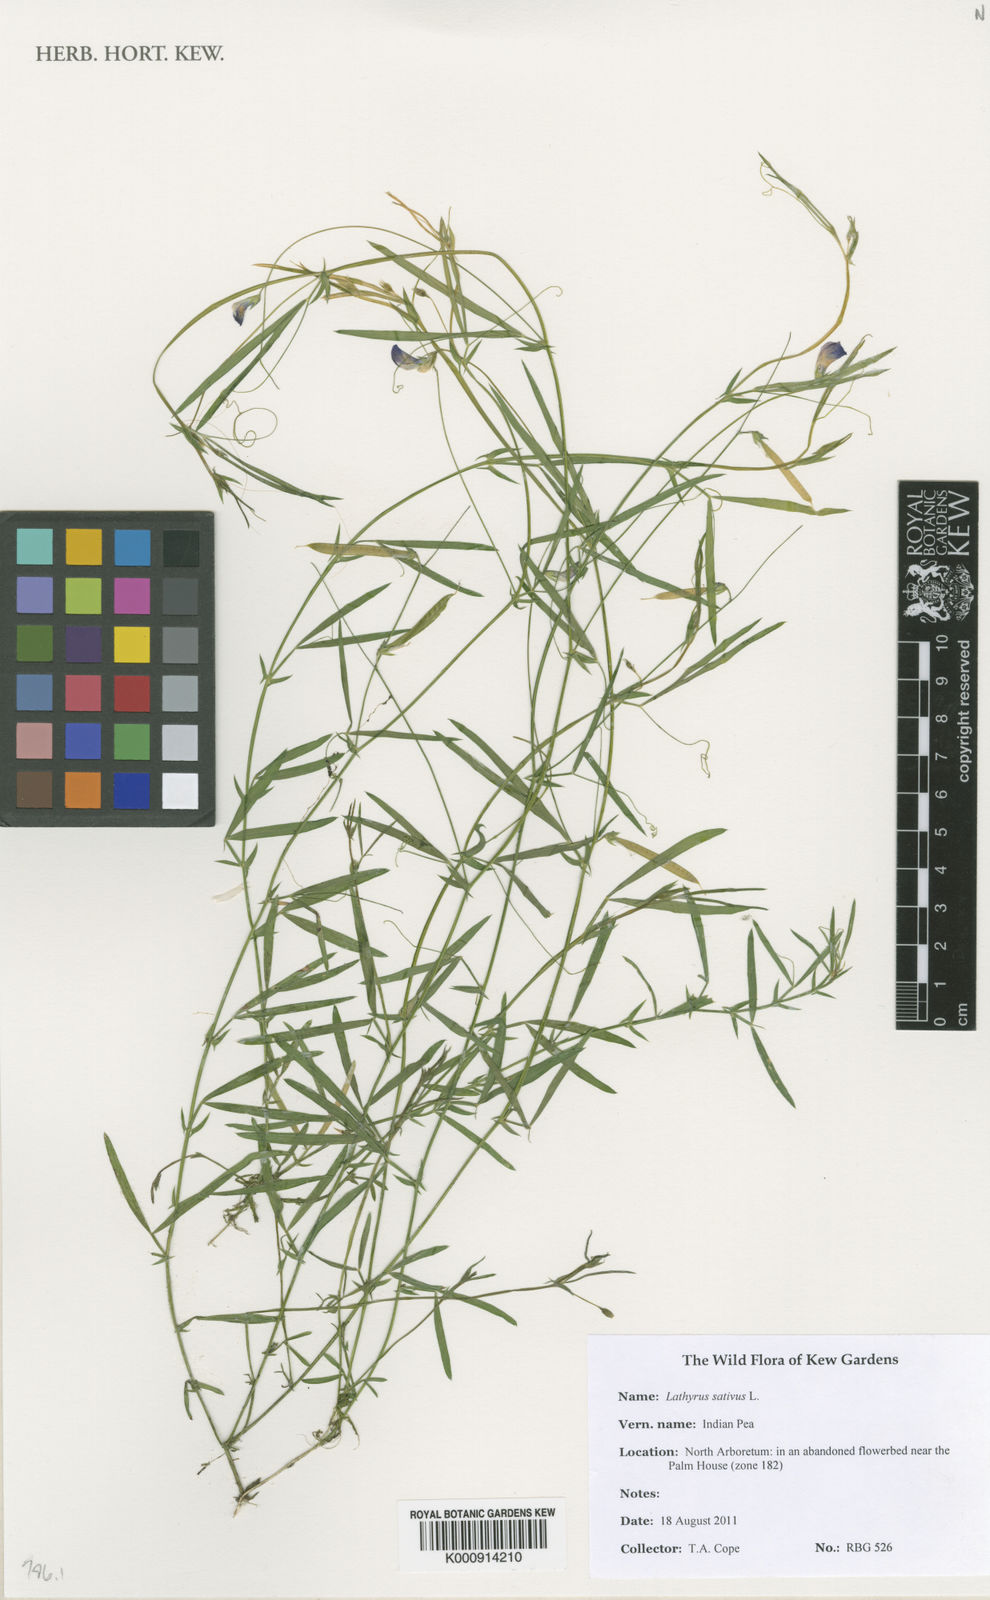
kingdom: Plantae
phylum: Tracheophyta
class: Magnoliopsida
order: Fabales
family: Fabaceae
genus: Lathyrus
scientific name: Lathyrus sativus
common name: Indian pea
